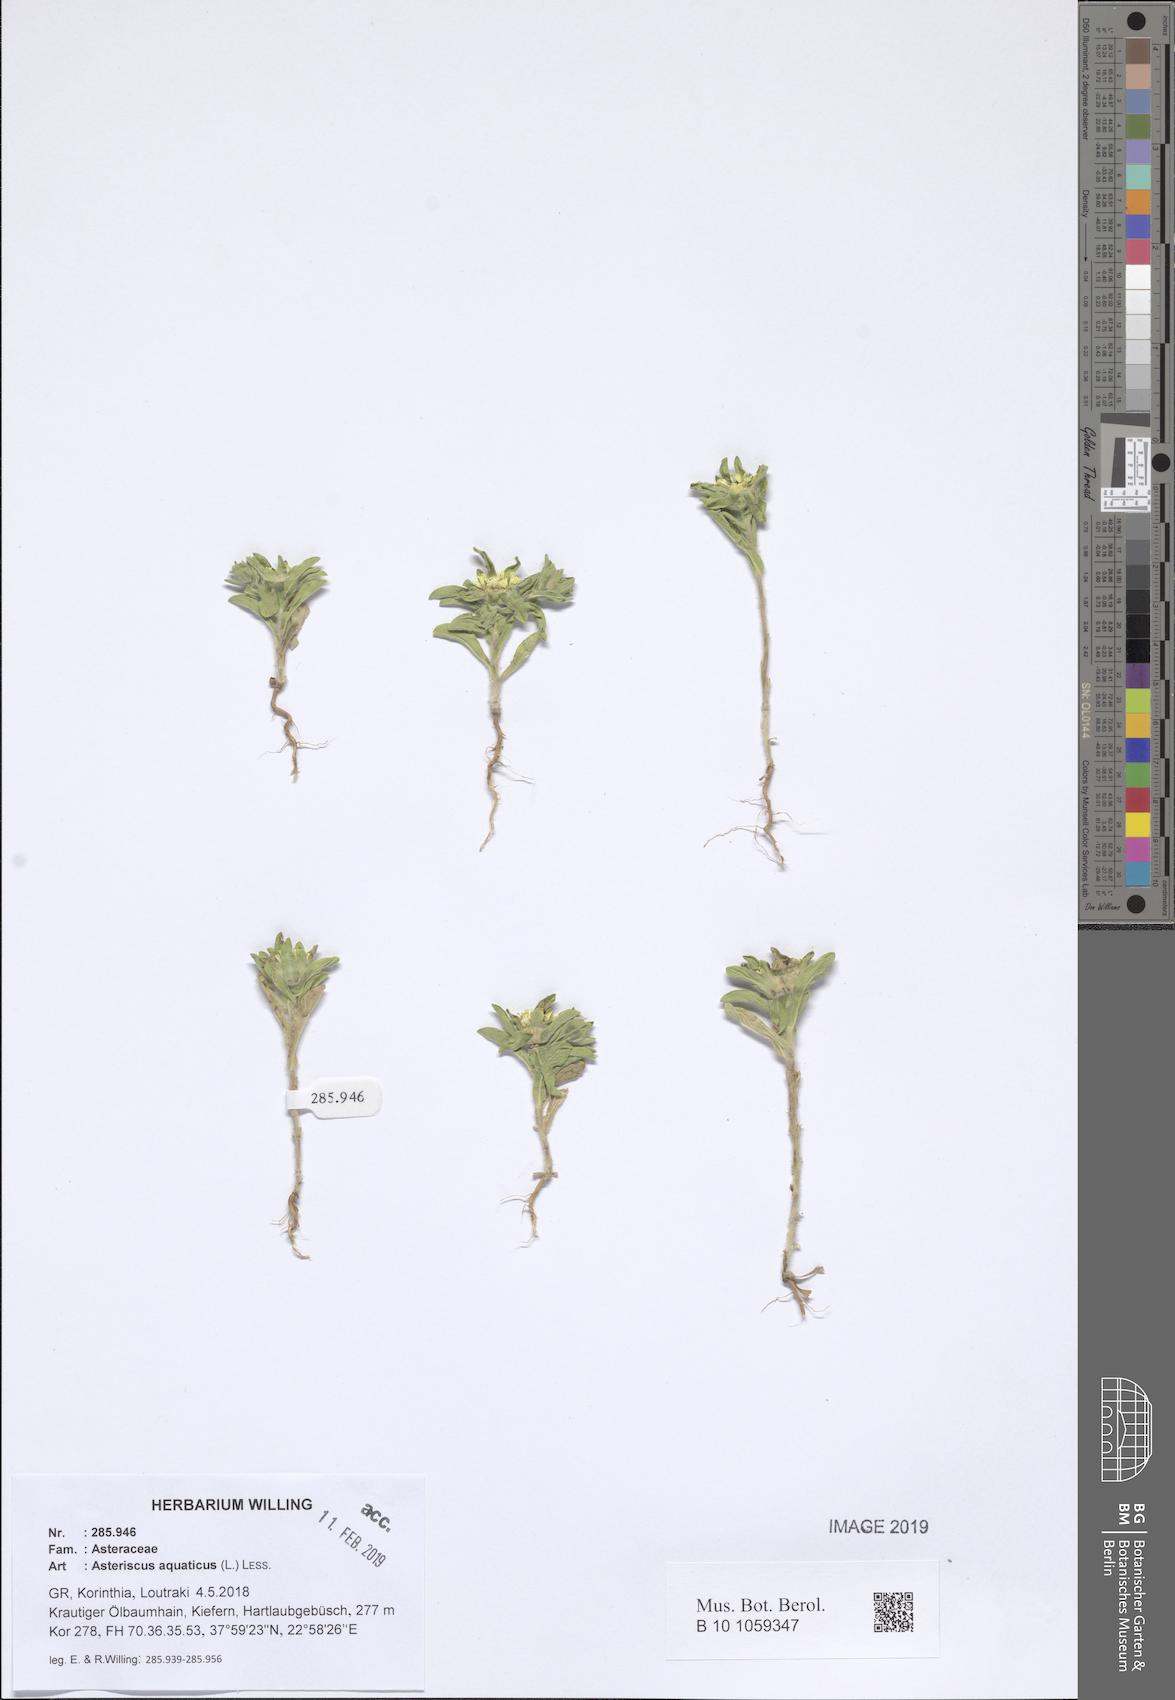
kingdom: Plantae
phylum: Tracheophyta
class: Magnoliopsida
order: Asterales
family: Asteraceae
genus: Asteriscus
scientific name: Asteriscus aquaticus
